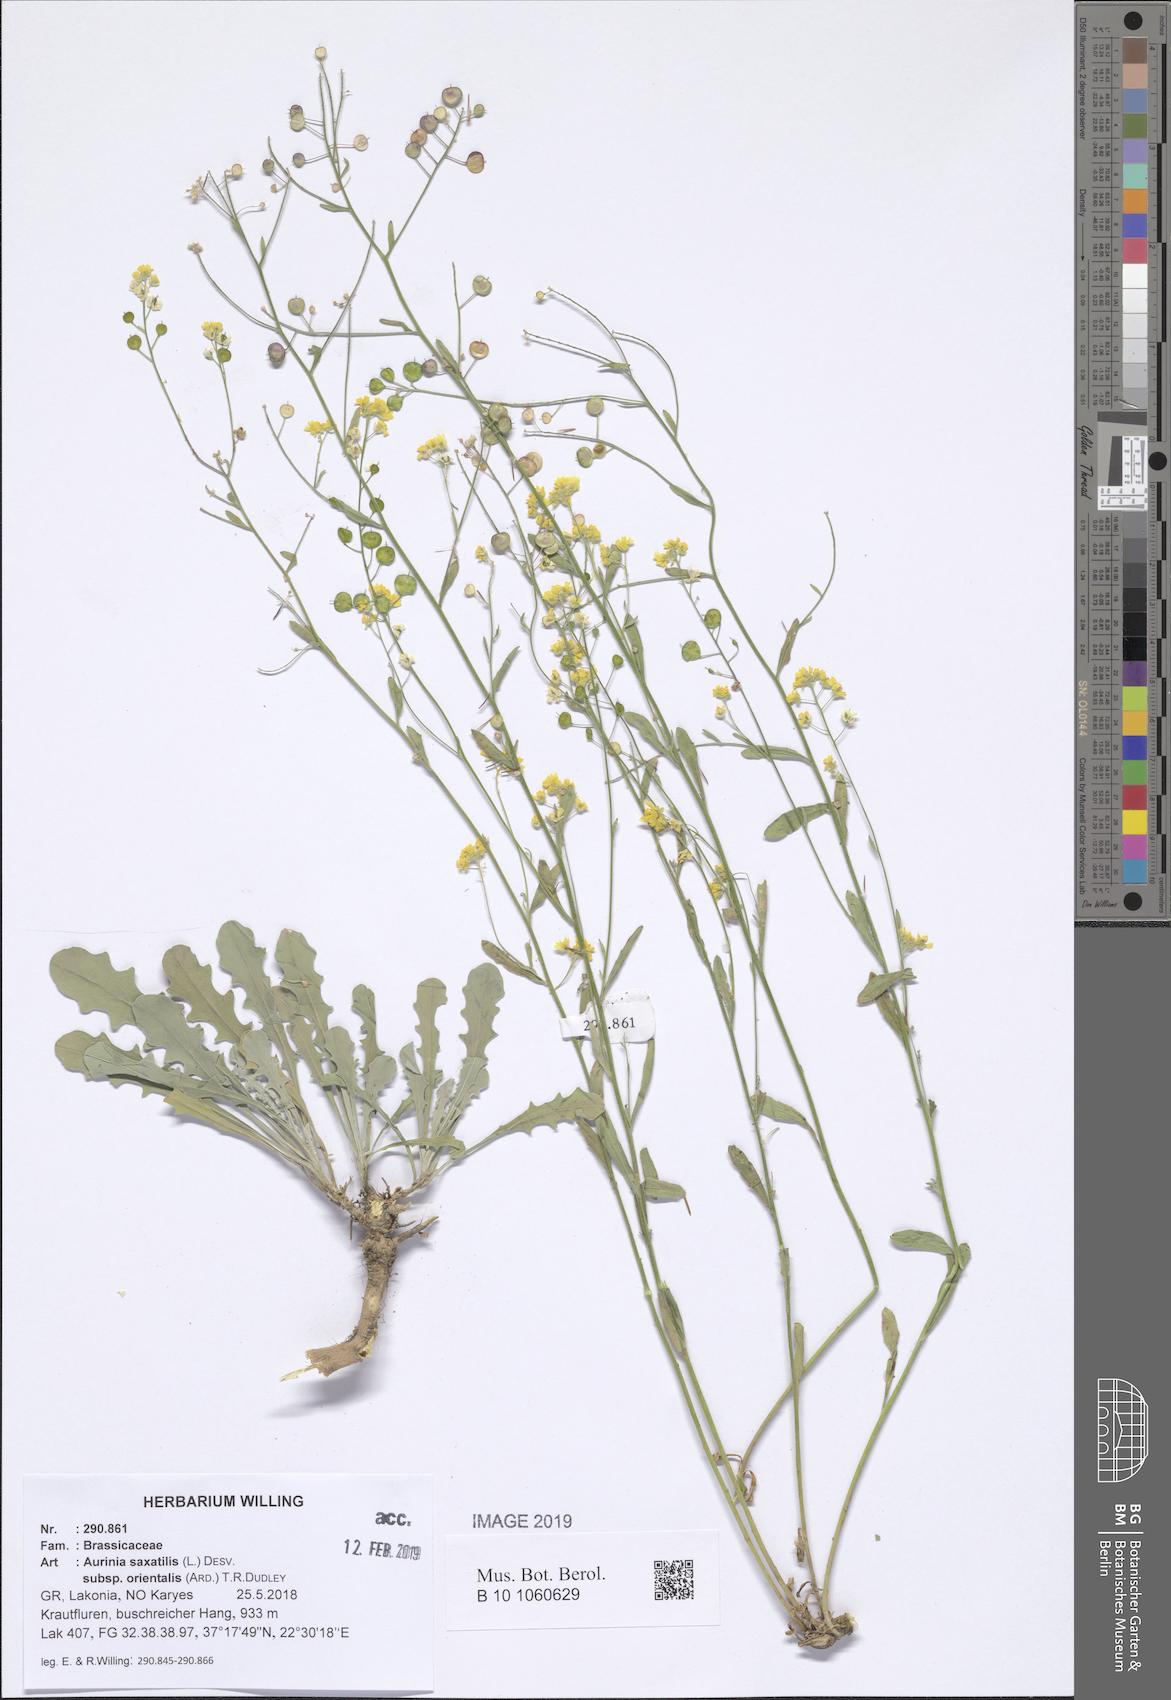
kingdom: Plantae
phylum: Tracheophyta
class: Magnoliopsida
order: Brassicales
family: Brassicaceae
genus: Aurinia
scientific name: Aurinia saxatilis
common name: Golden-tuft alyssum
